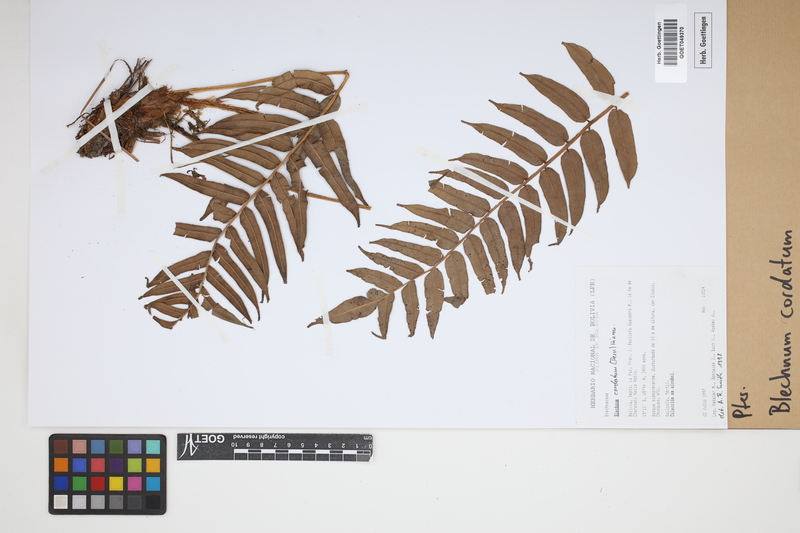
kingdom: Plantae
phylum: Tracheophyta
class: Polypodiopsida
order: Polypodiales
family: Blechnaceae
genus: Parablechnum
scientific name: Parablechnum cordatum
